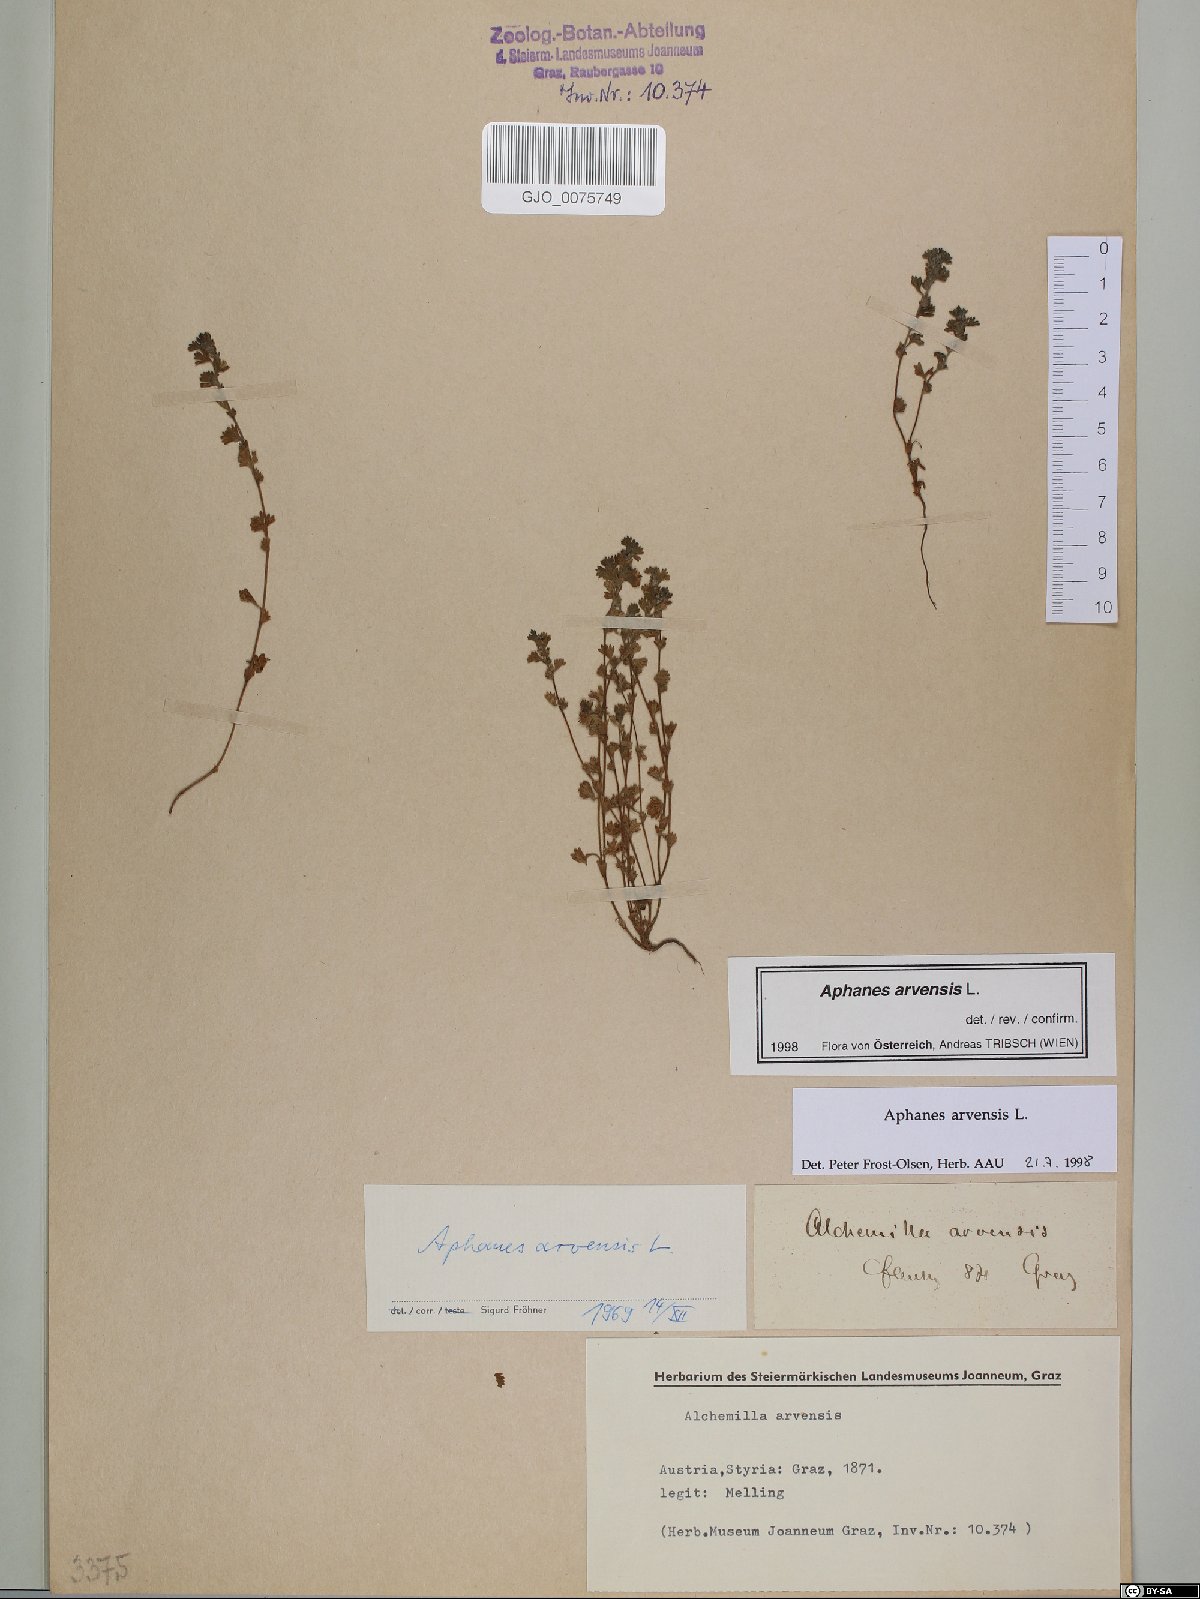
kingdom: Plantae
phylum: Tracheophyta
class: Magnoliopsida
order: Rosales
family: Rosaceae
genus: Aphanes
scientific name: Aphanes arvensis
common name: Parsley-piert
